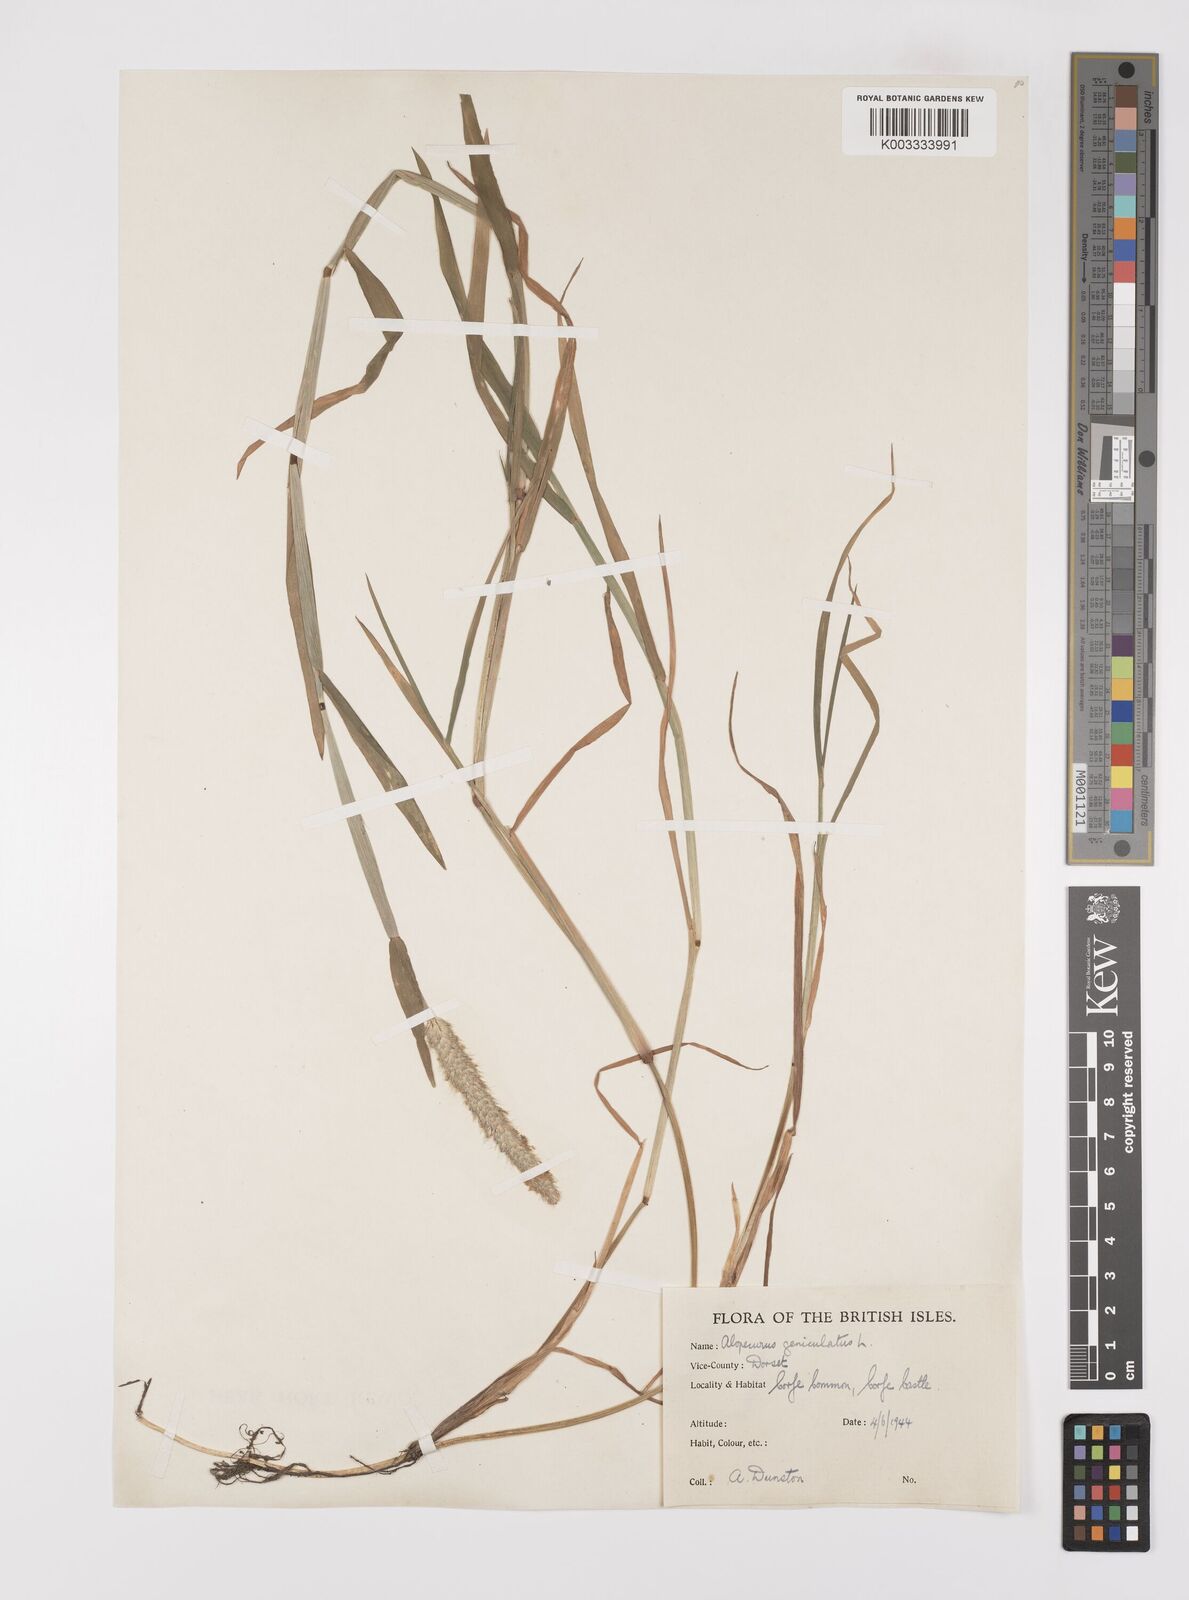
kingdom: Plantae
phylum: Tracheophyta
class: Liliopsida
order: Poales
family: Poaceae
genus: Alopecurus
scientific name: Alopecurus geniculatus
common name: Water foxtail
